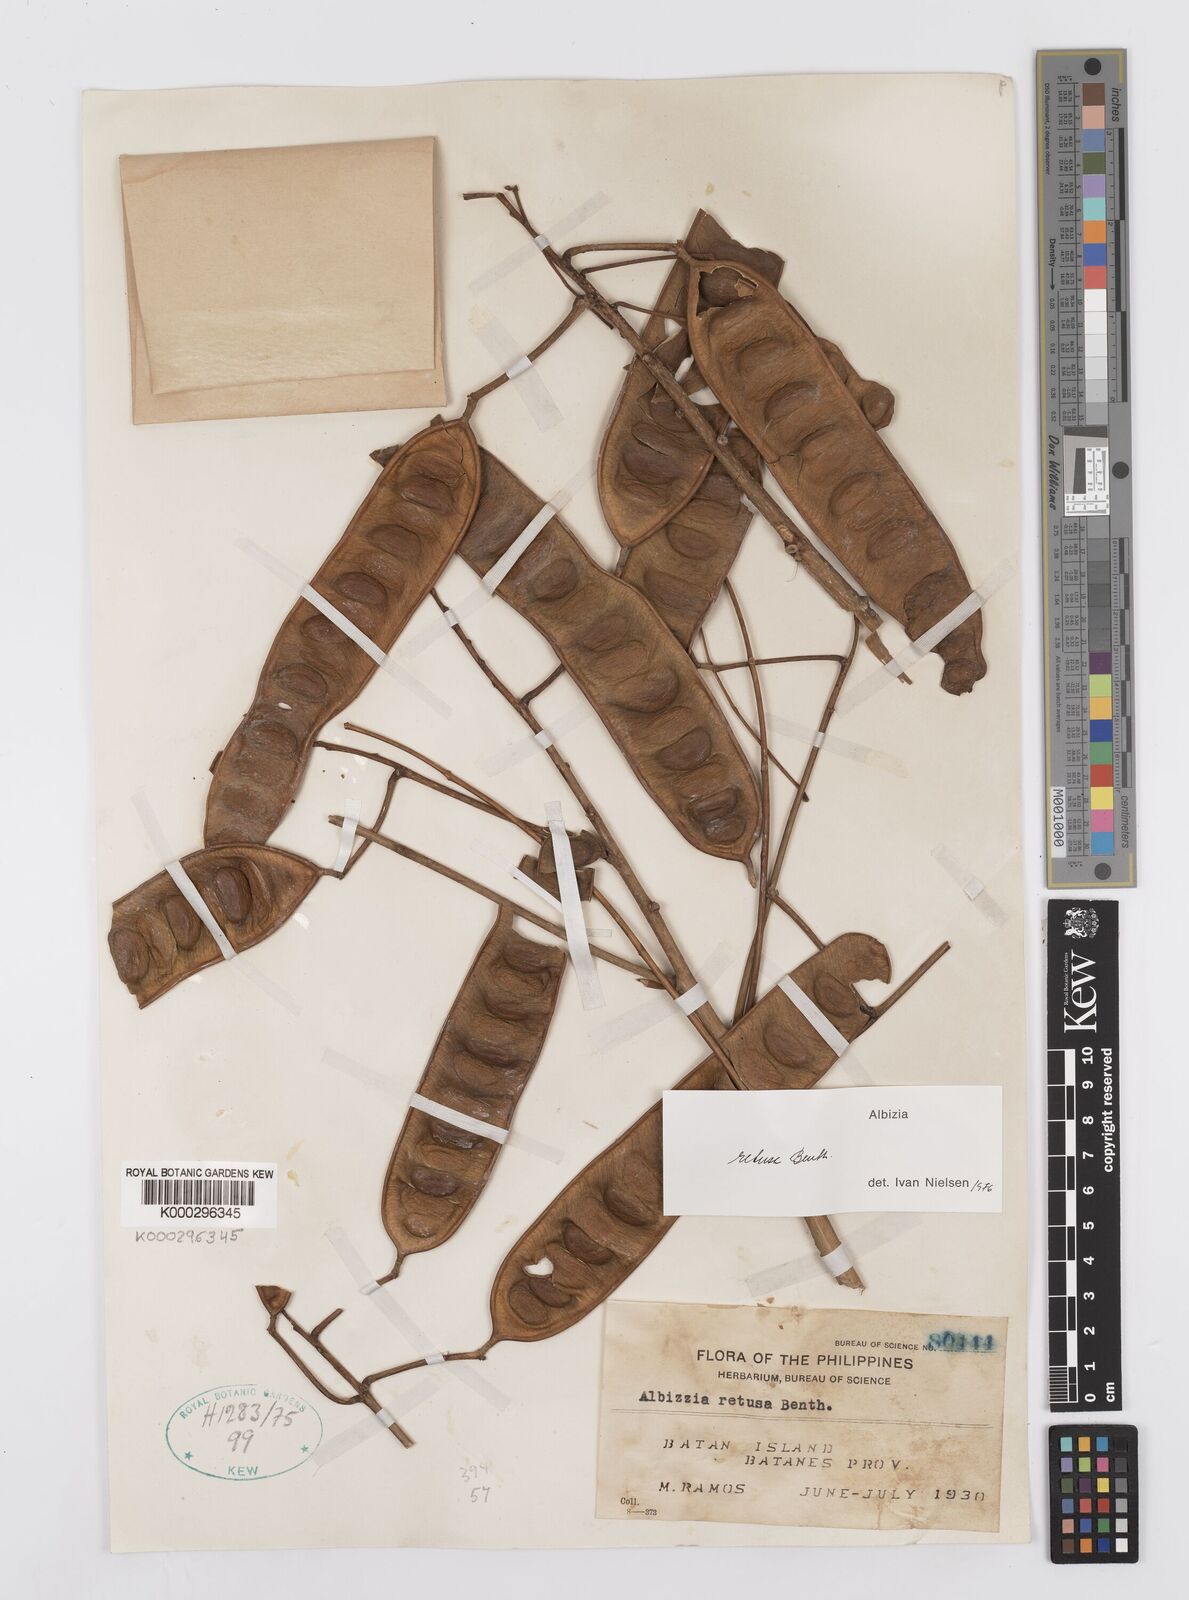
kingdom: Plantae
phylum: Tracheophyta
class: Magnoliopsida
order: Fabales
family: Fabaceae
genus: Albizia
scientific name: Albizia retusa
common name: Sea albizia
